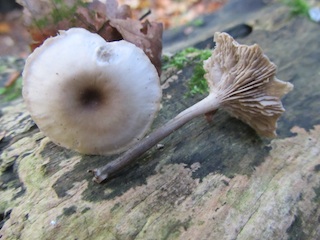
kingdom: Fungi
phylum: Basidiomycota
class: Agaricomycetes
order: Agaricales
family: Tricholomataceae
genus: Lepista
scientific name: Lepista metachroides
